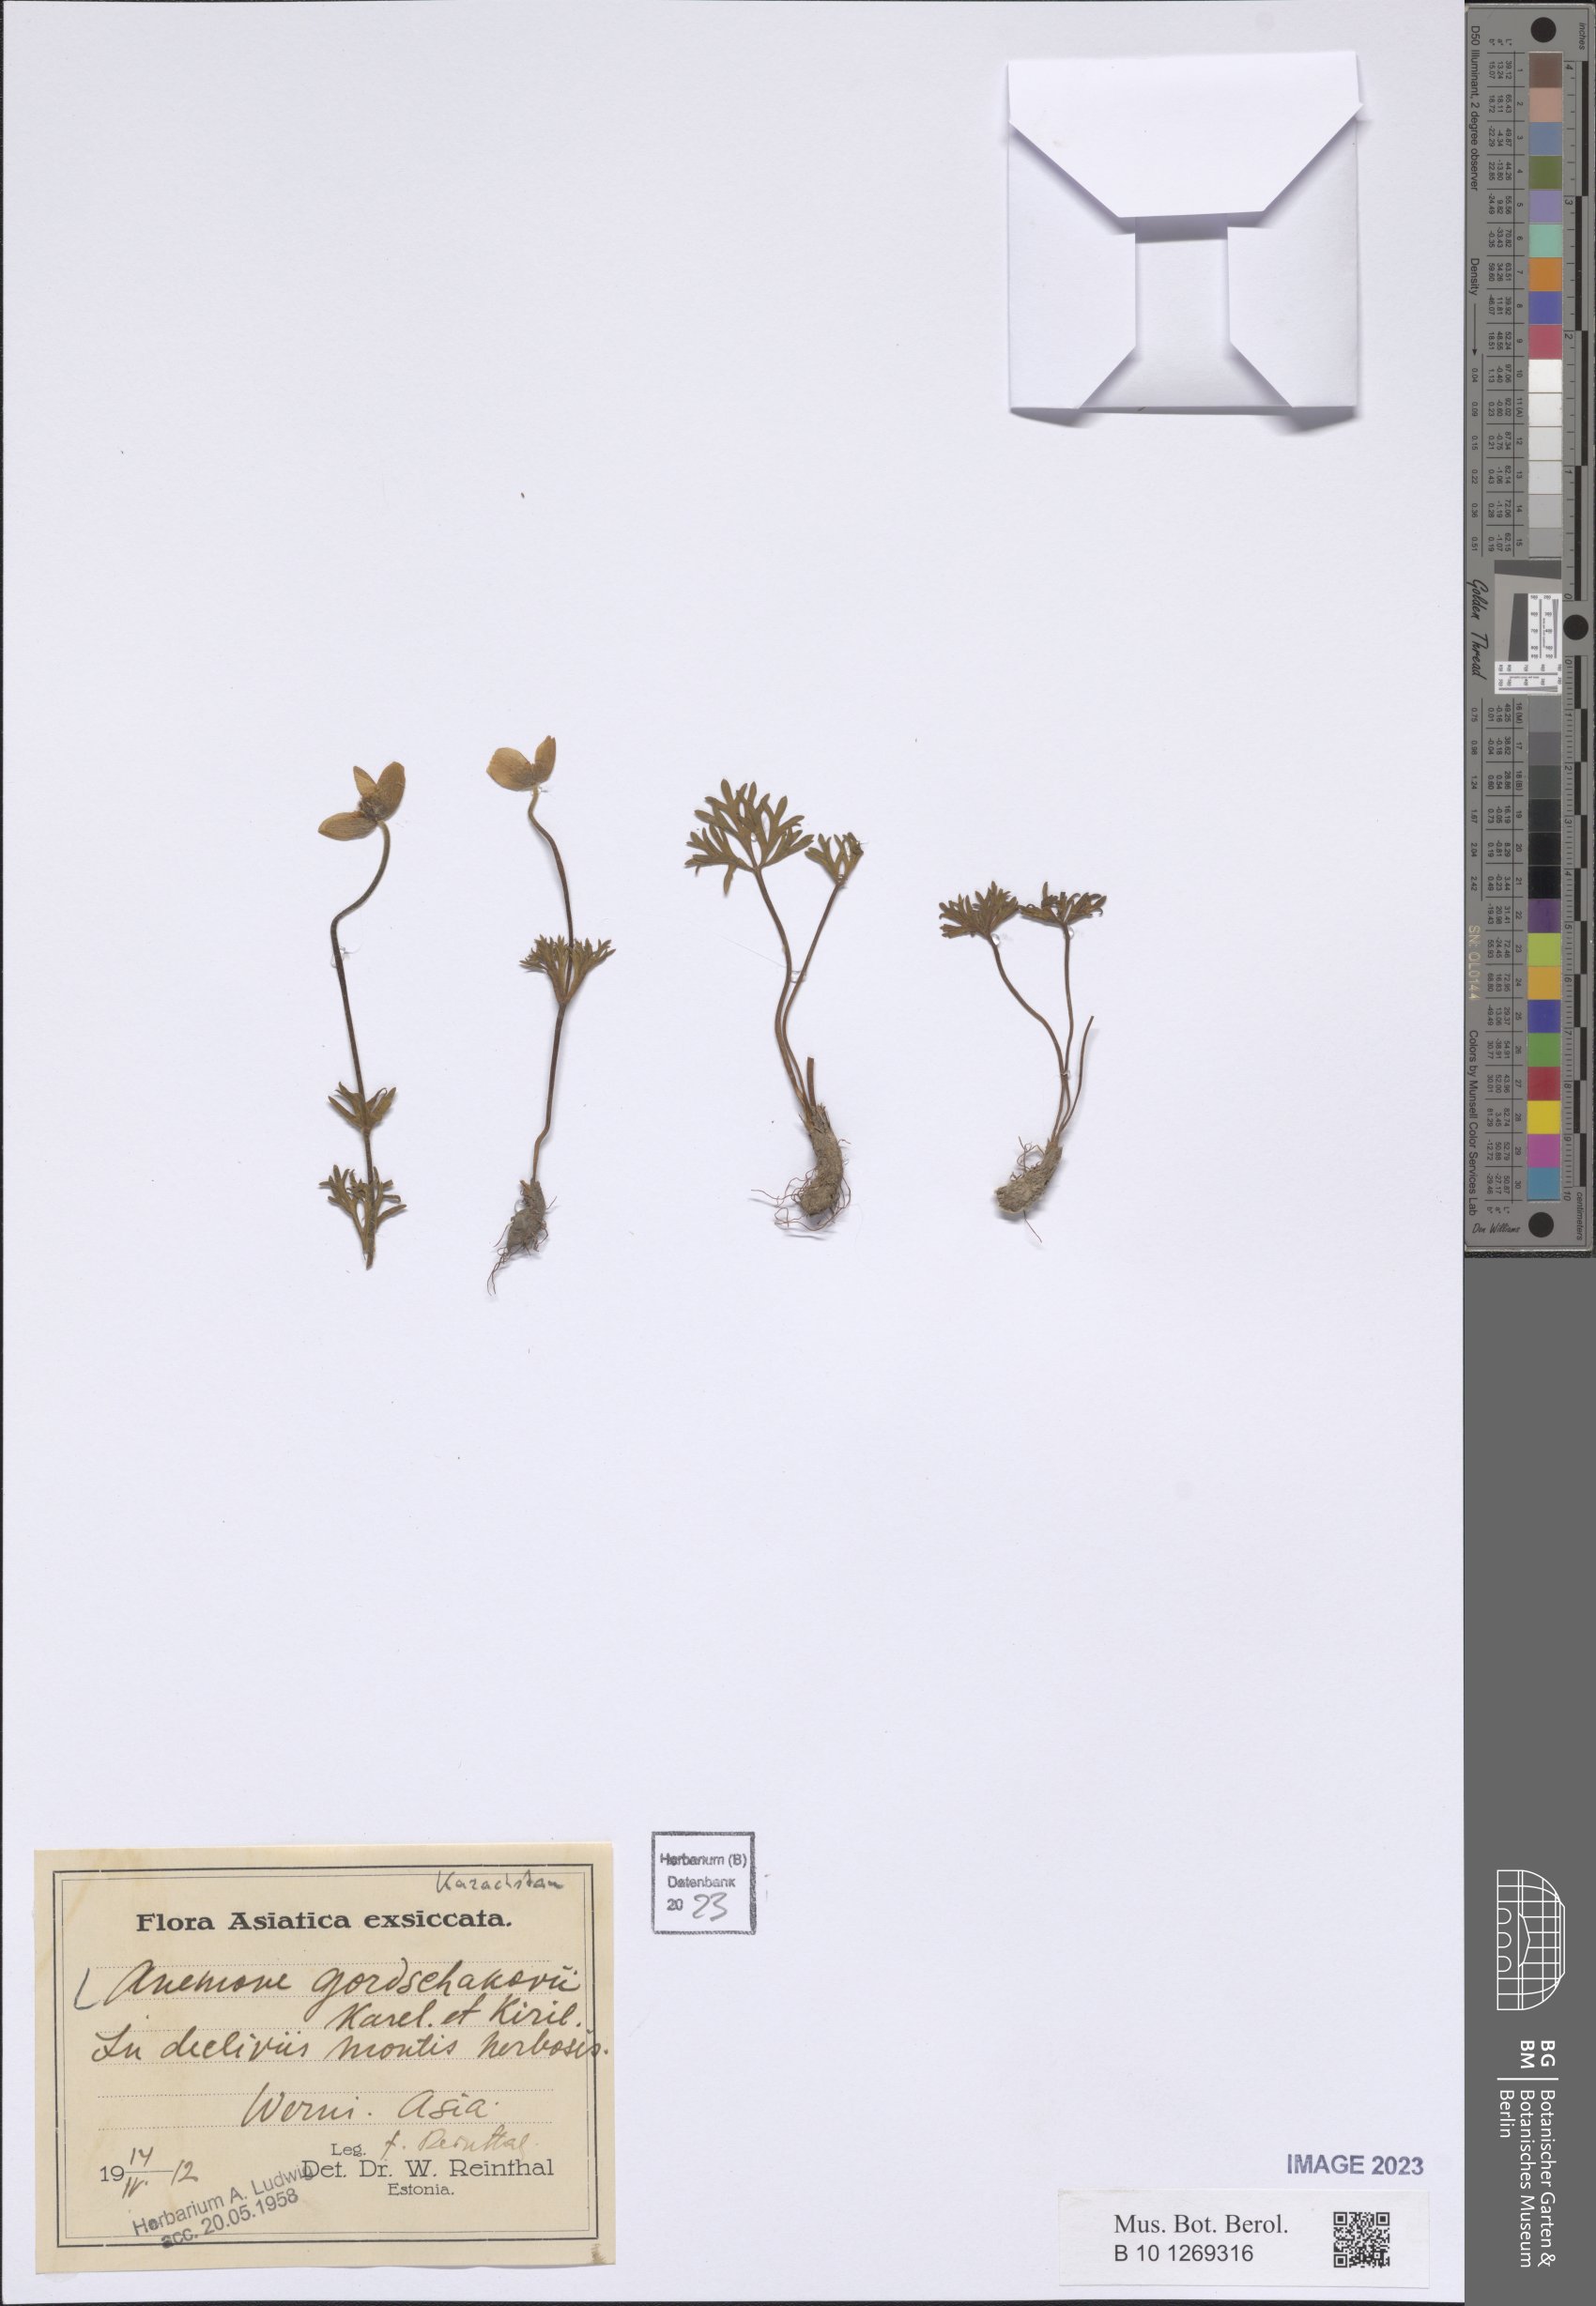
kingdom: Plantae
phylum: Tracheophyta
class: Magnoliopsida
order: Ranunculales
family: Ranunculaceae
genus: Anemone
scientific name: Anemone biflora
